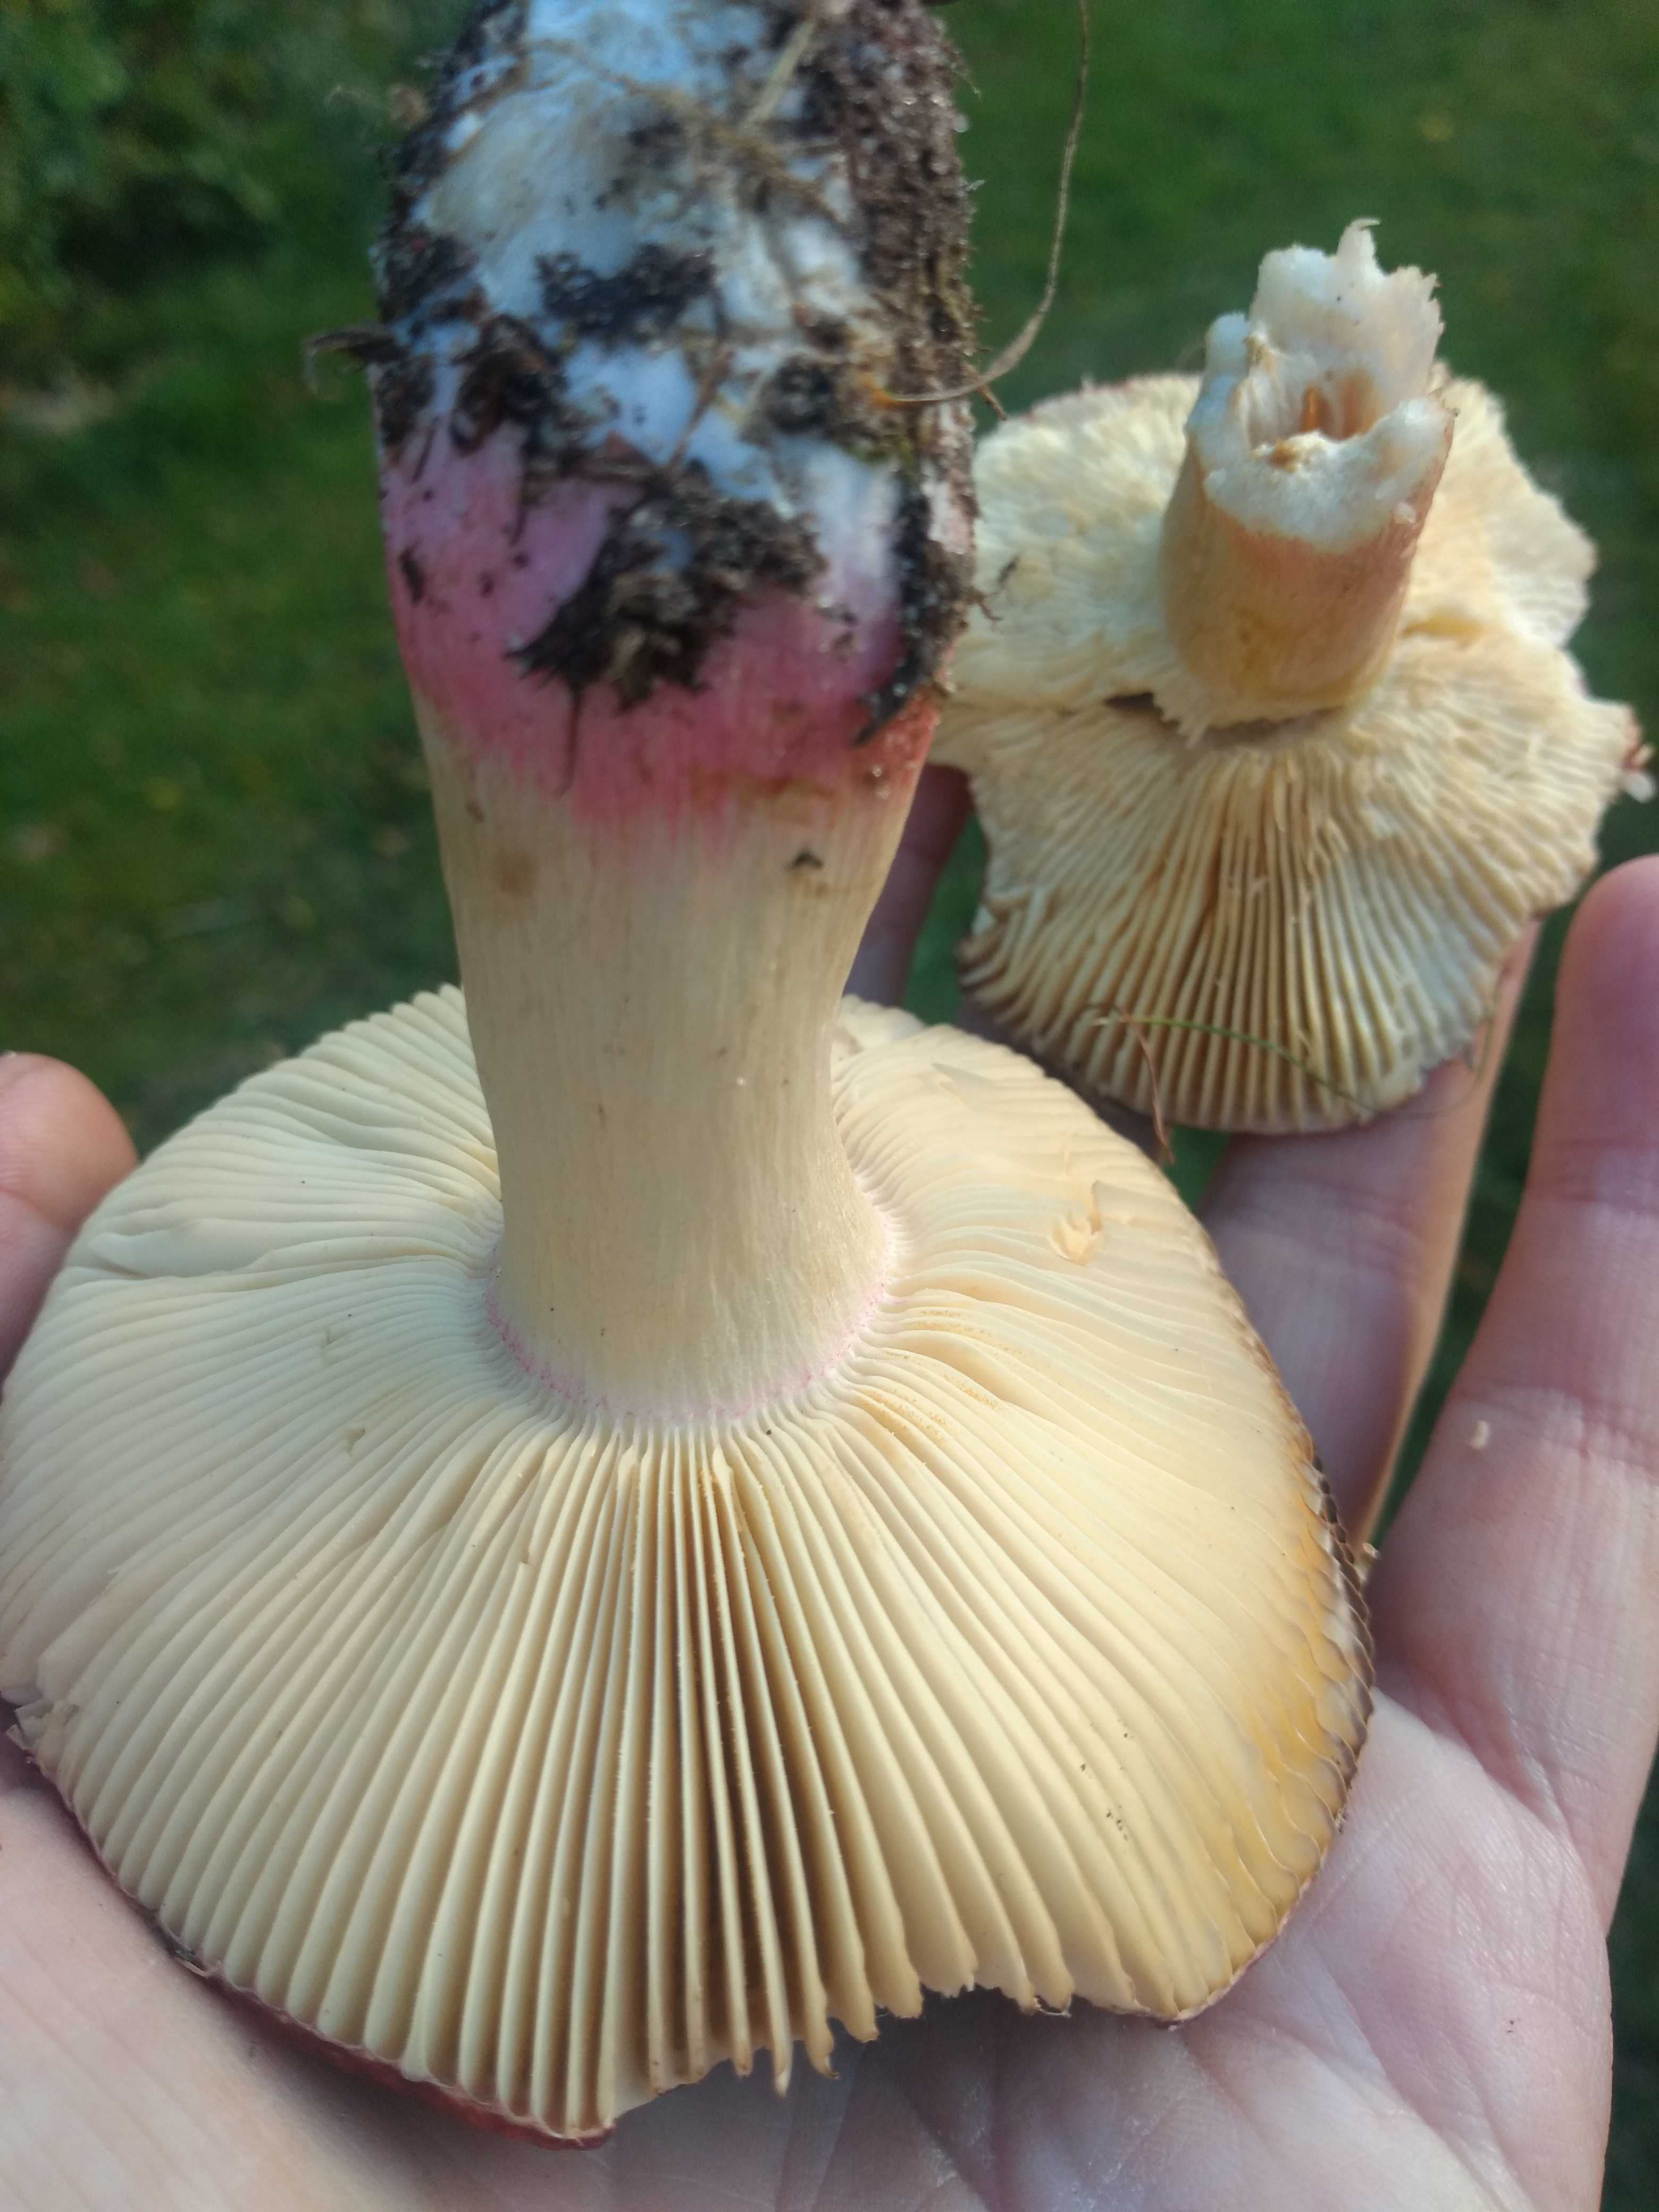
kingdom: Fungi
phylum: Basidiomycota
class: Agaricomycetes
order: Russulales
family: Russulaceae
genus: Russula
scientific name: Russula xerampelina
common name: hummer-skørhat
